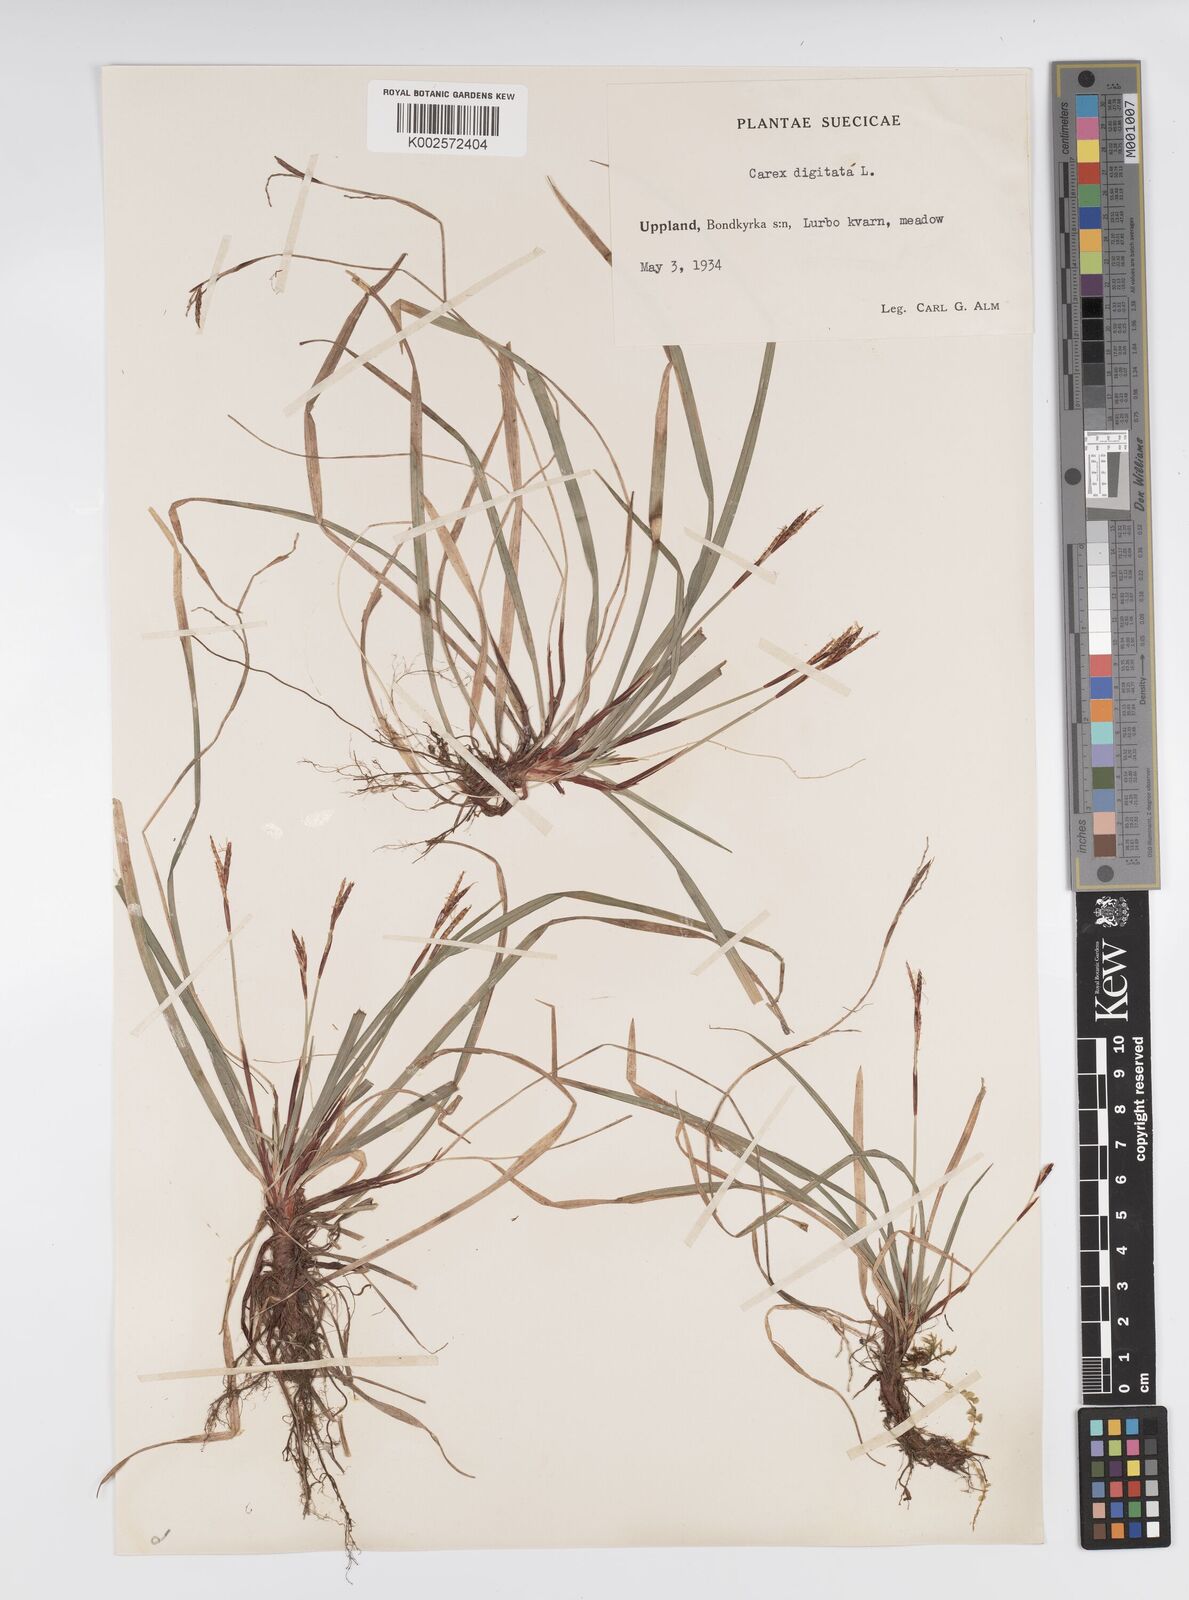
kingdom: Plantae
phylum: Tracheophyta
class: Liliopsida
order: Poales
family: Cyperaceae
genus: Carex
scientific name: Carex digitata
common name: Fingered sedge
